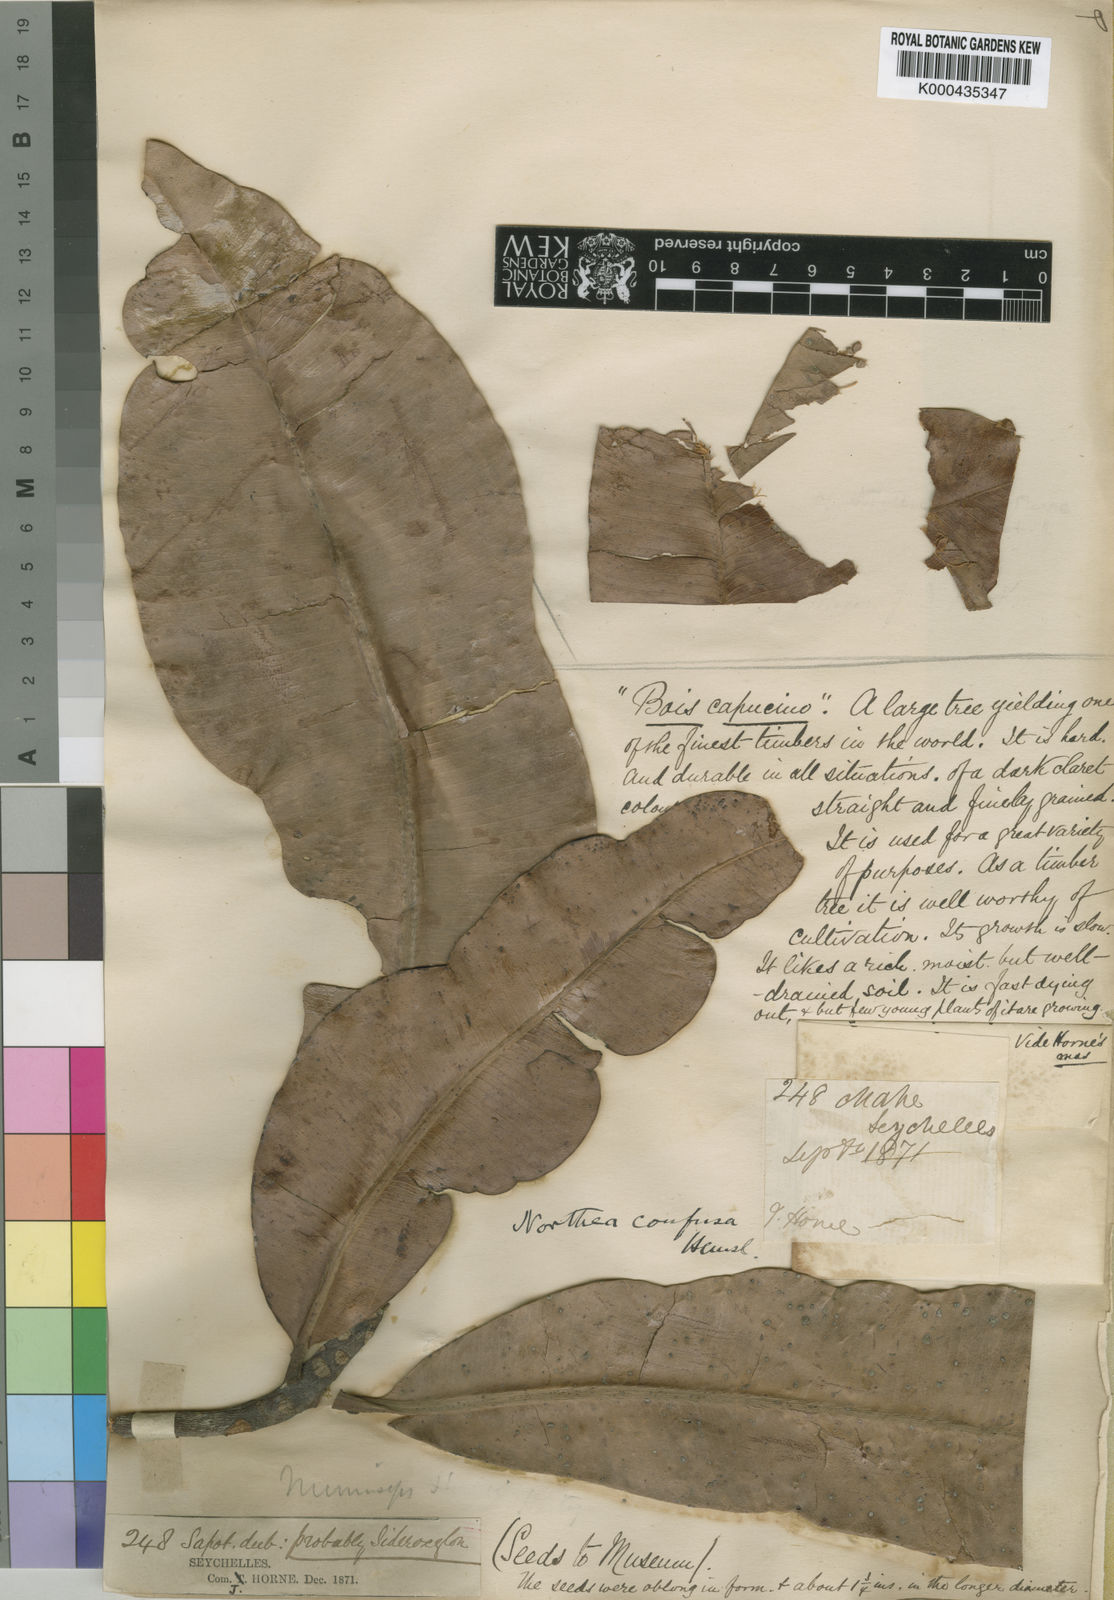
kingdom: Plantae
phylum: Tracheophyta
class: Magnoliopsida
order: Ericales
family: Sapotaceae
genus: Northia
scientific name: Northia seychellana
